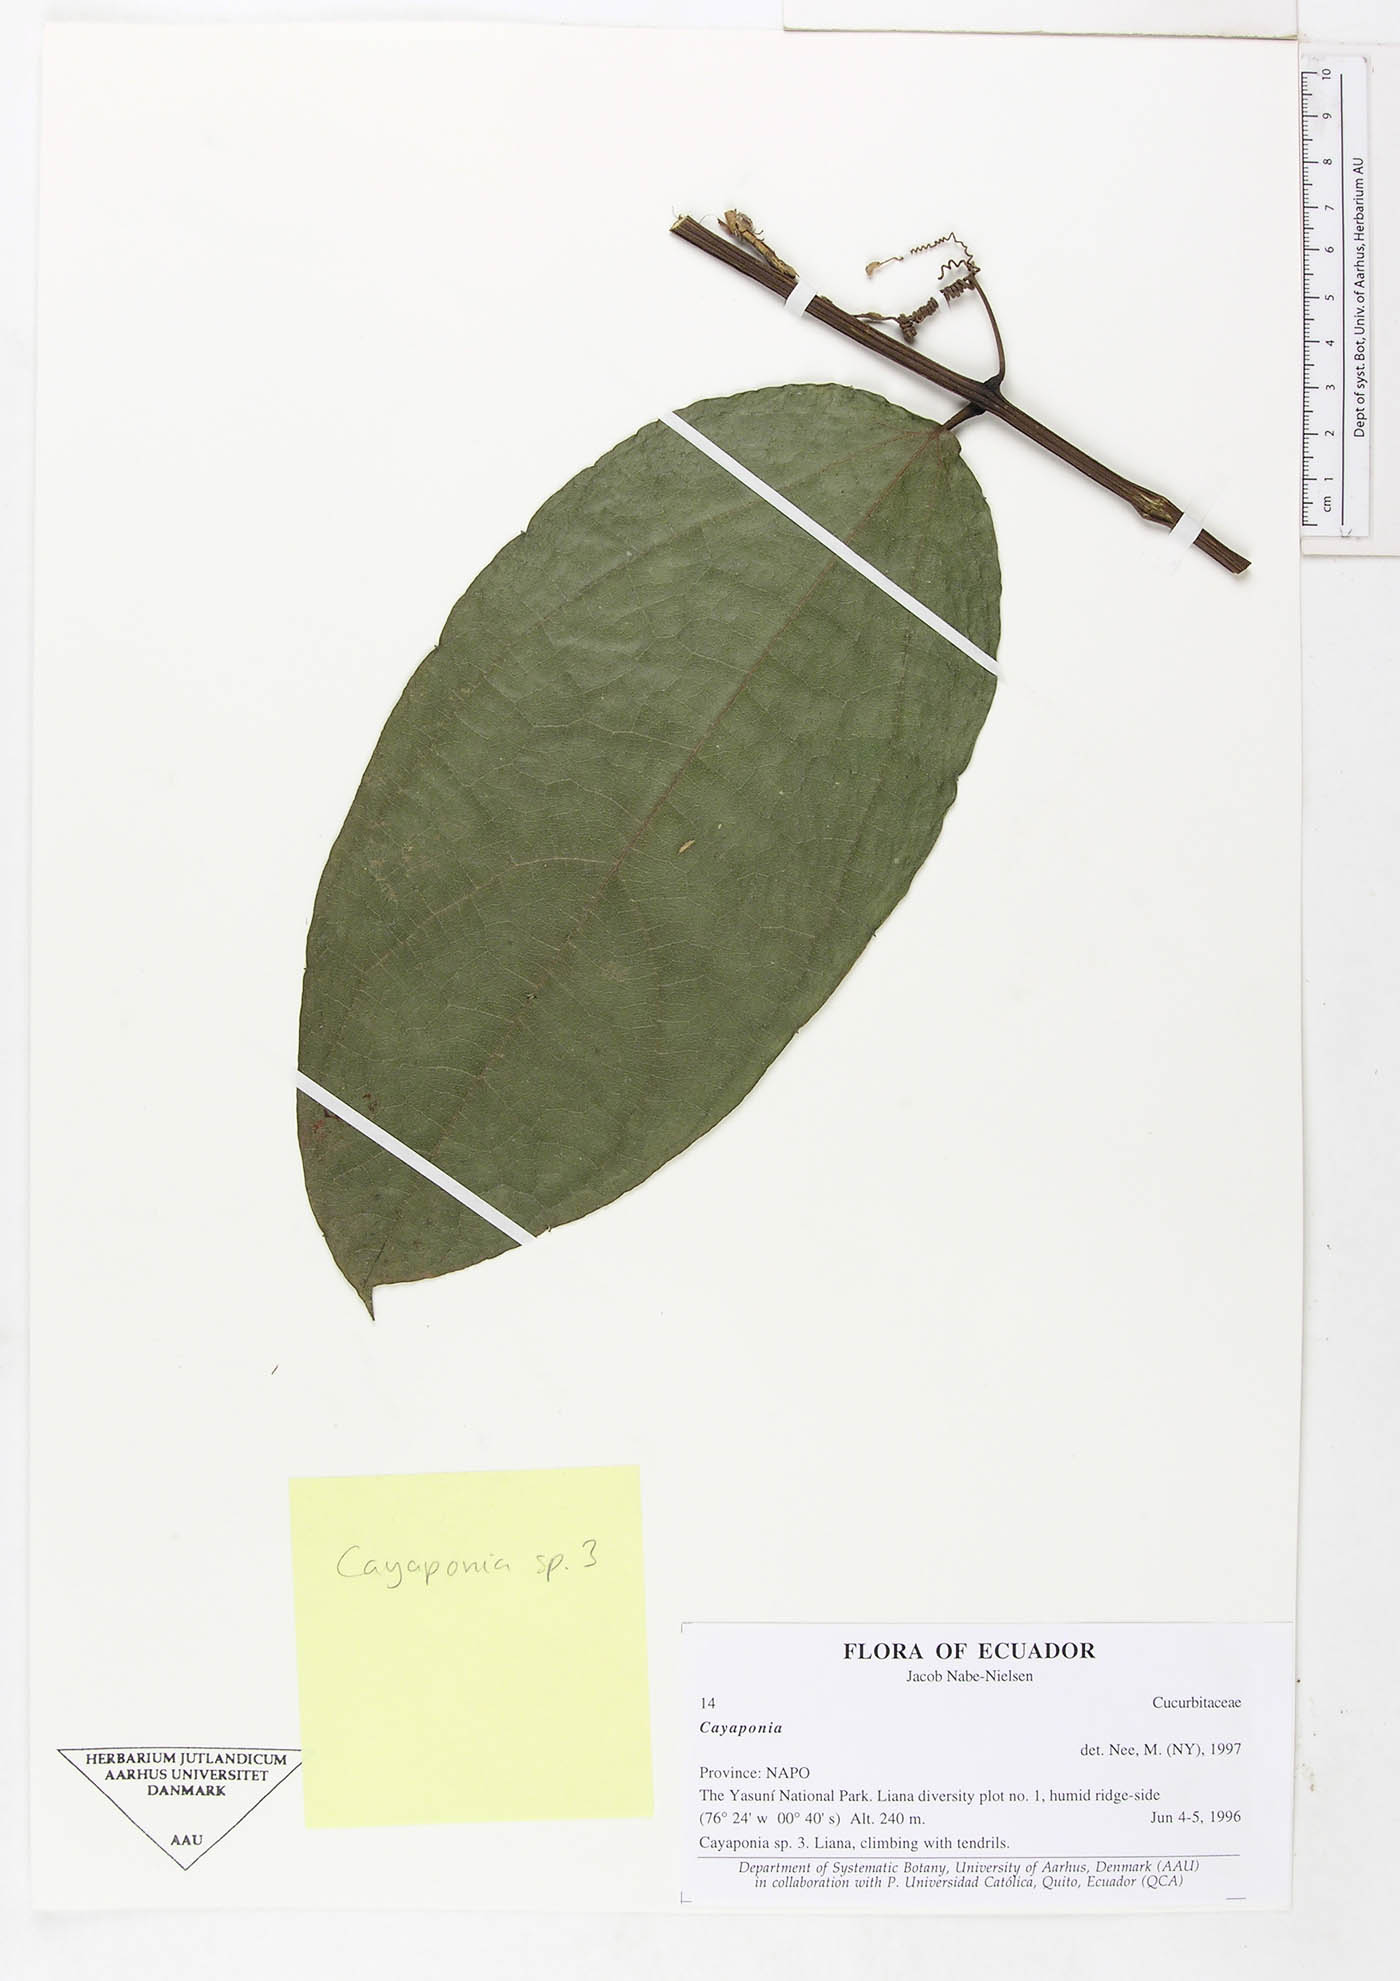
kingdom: Plantae
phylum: Tracheophyta
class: Magnoliopsida
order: Cucurbitales
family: Cucurbitaceae
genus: Cayaponia
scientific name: Cayaponia
